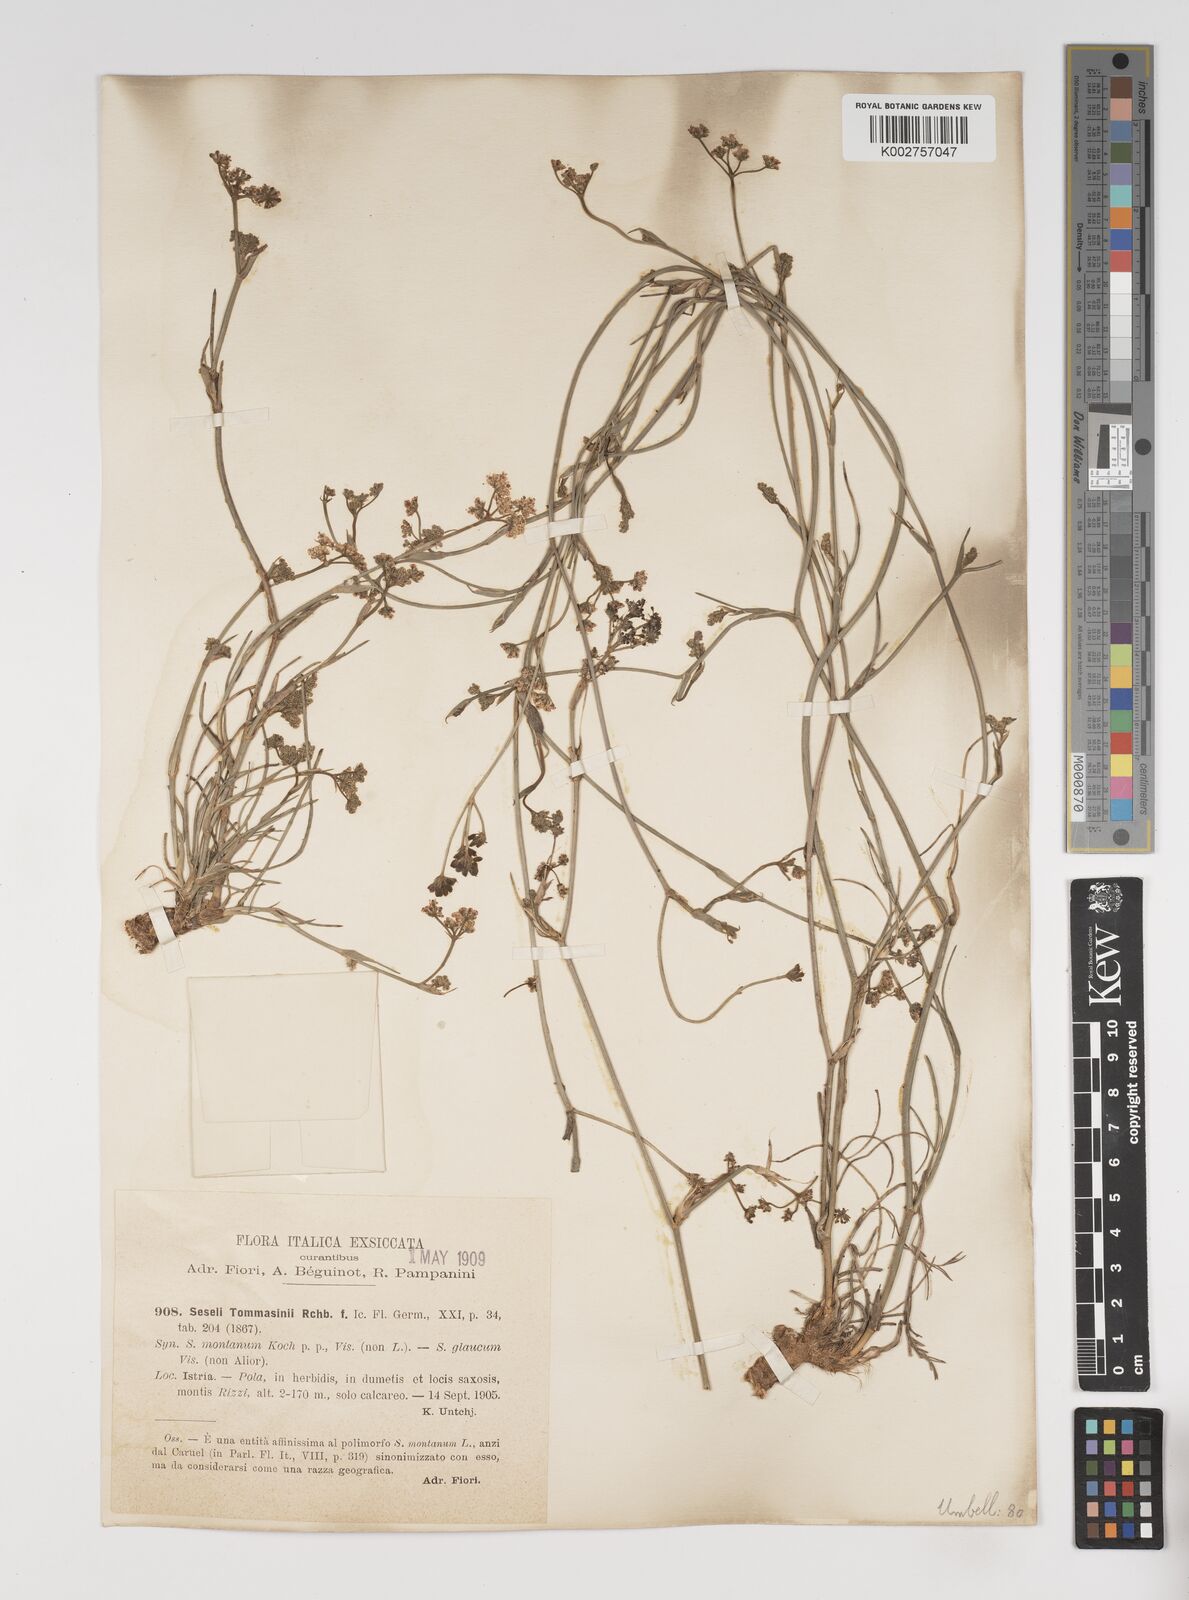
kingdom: Plantae
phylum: Tracheophyta
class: Magnoliopsida
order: Apiales
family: Apiaceae
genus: Seseli
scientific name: Seseli montanum
